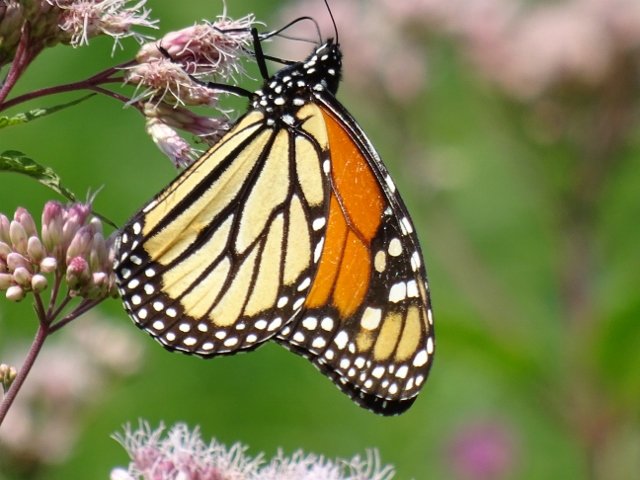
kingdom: Animalia
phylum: Arthropoda
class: Insecta
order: Lepidoptera
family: Nymphalidae
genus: Danaus
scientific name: Danaus plexippus
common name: Monarch
